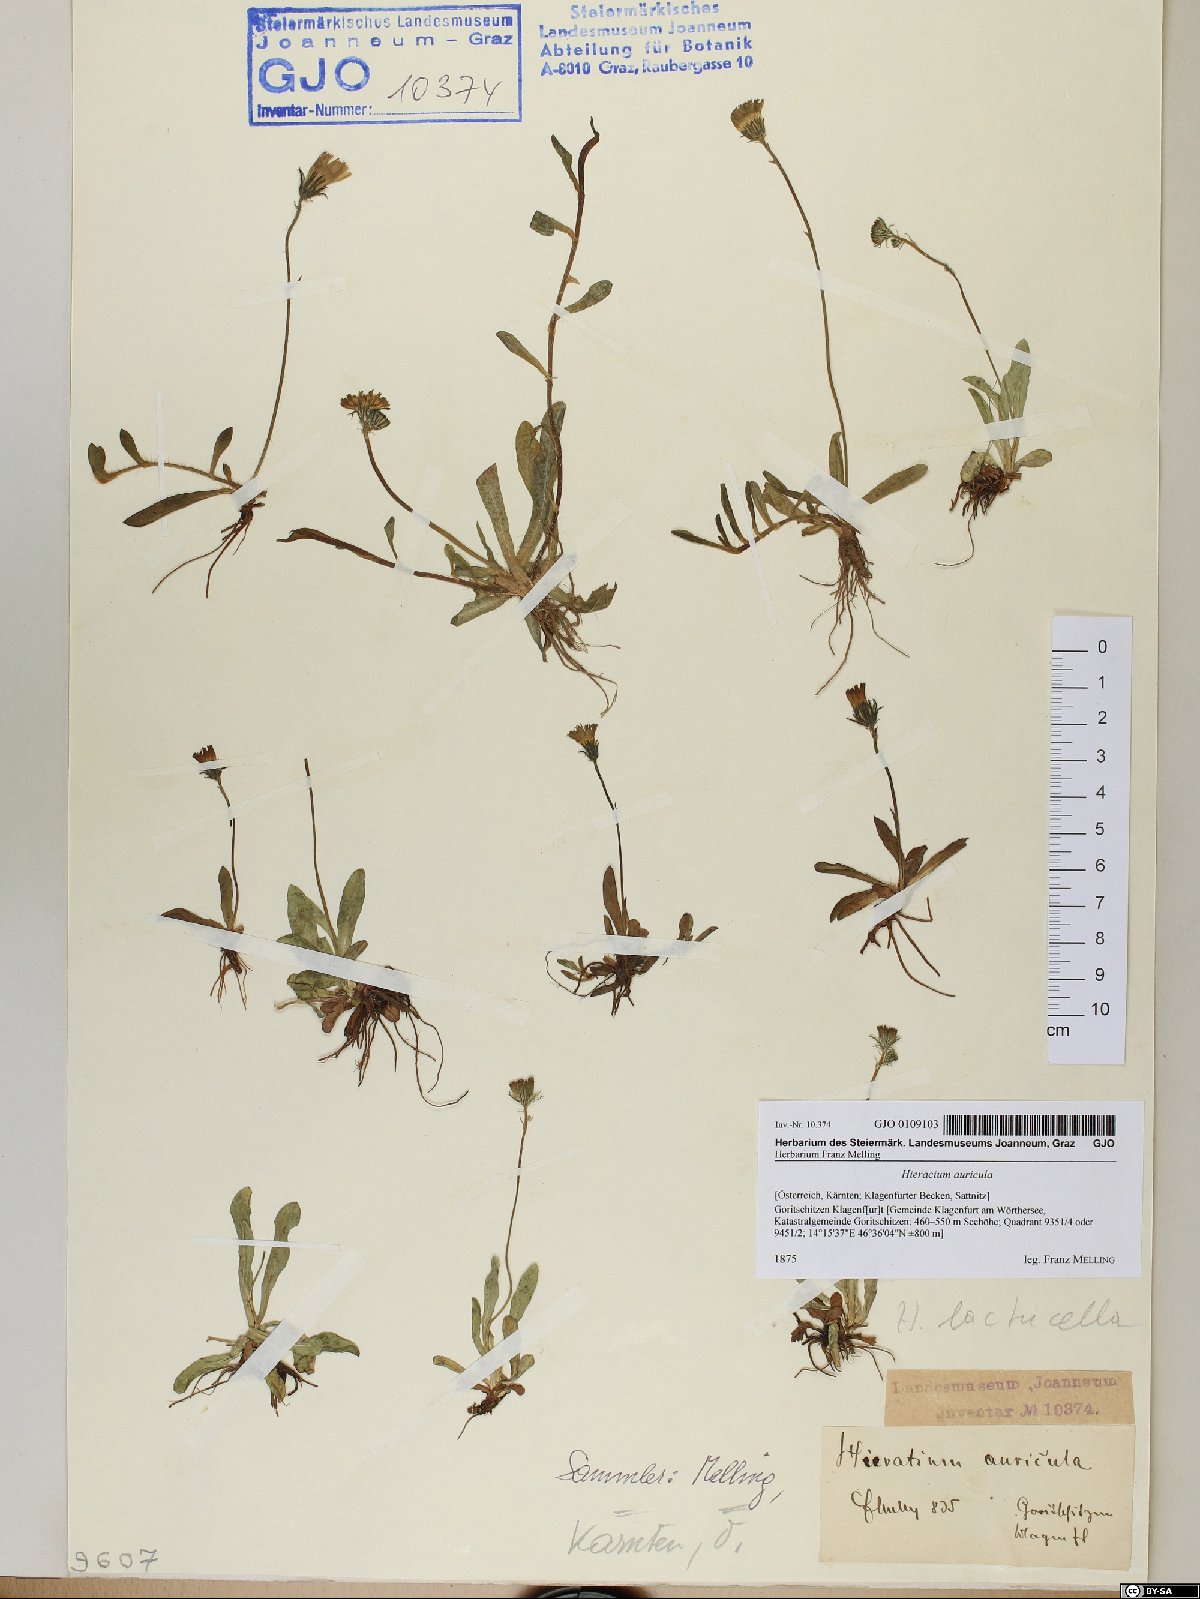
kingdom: Plantae
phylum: Tracheophyta
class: Magnoliopsida
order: Asterales
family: Asteraceae
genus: Hieracium
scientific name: Hieracium auricula
